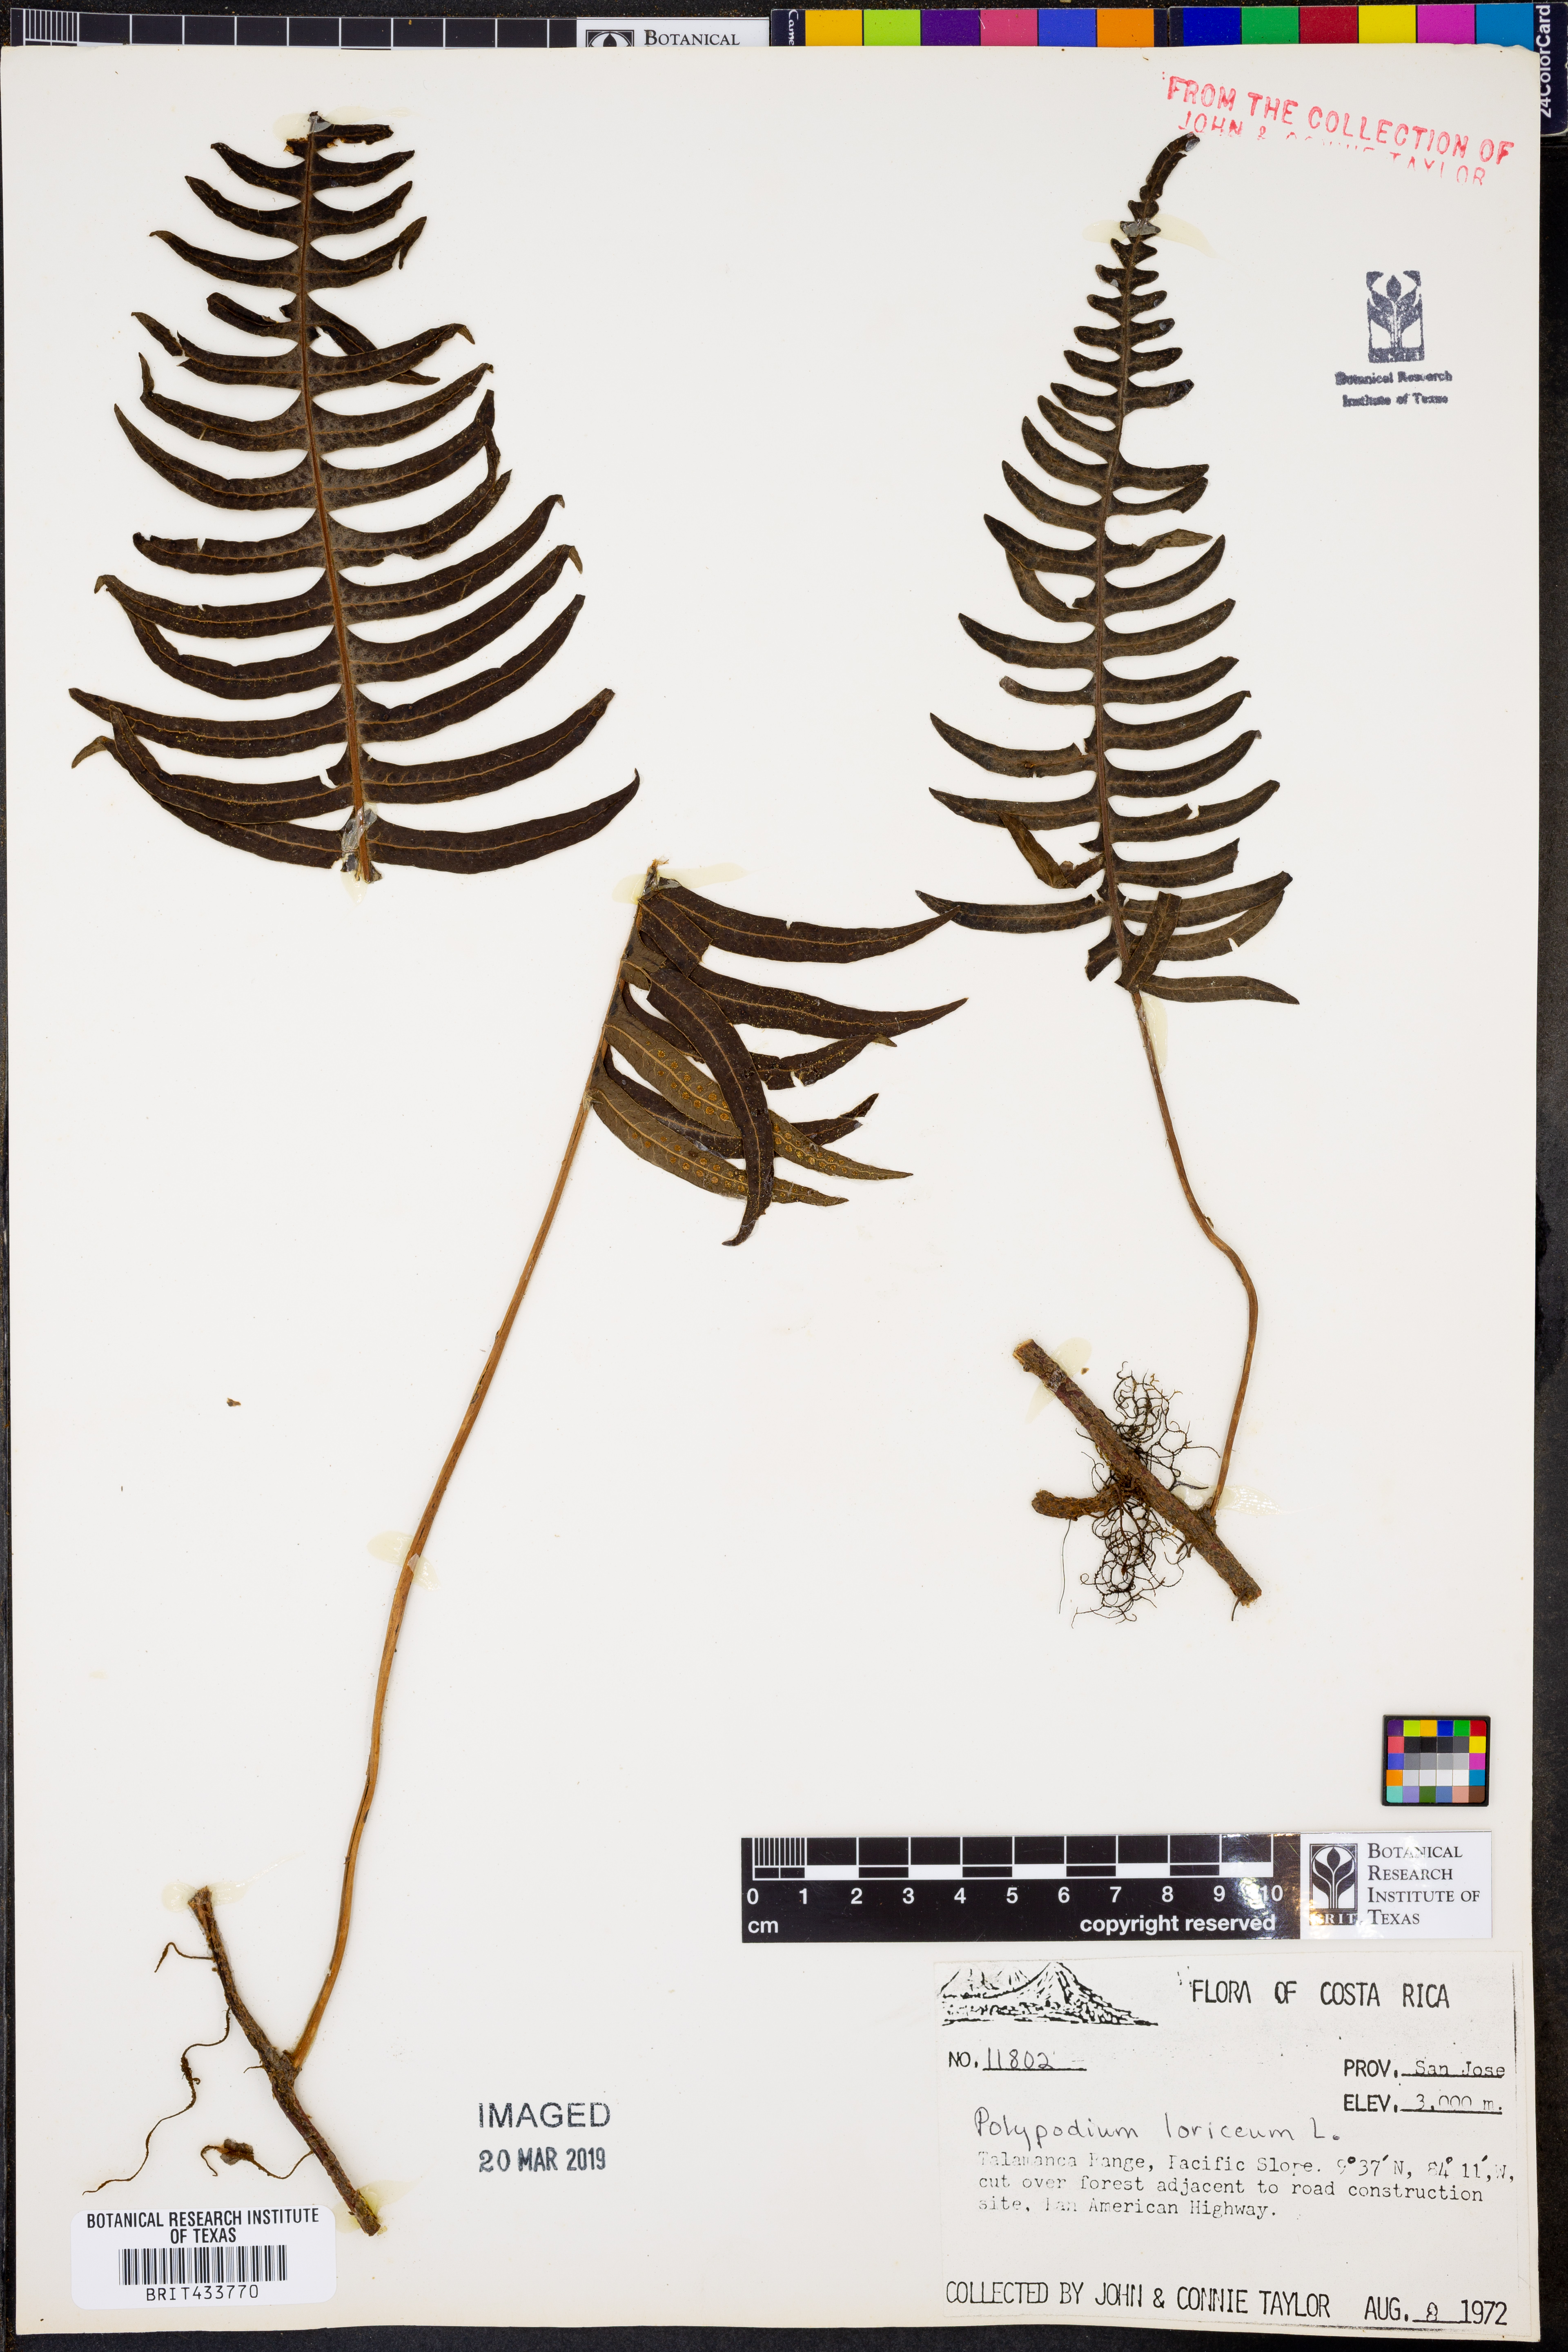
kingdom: Plantae
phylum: Tracheophyta
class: Polypodiopsida
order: Polypodiales
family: Polypodiaceae
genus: Serpocaulon
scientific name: Serpocaulon loriceum
